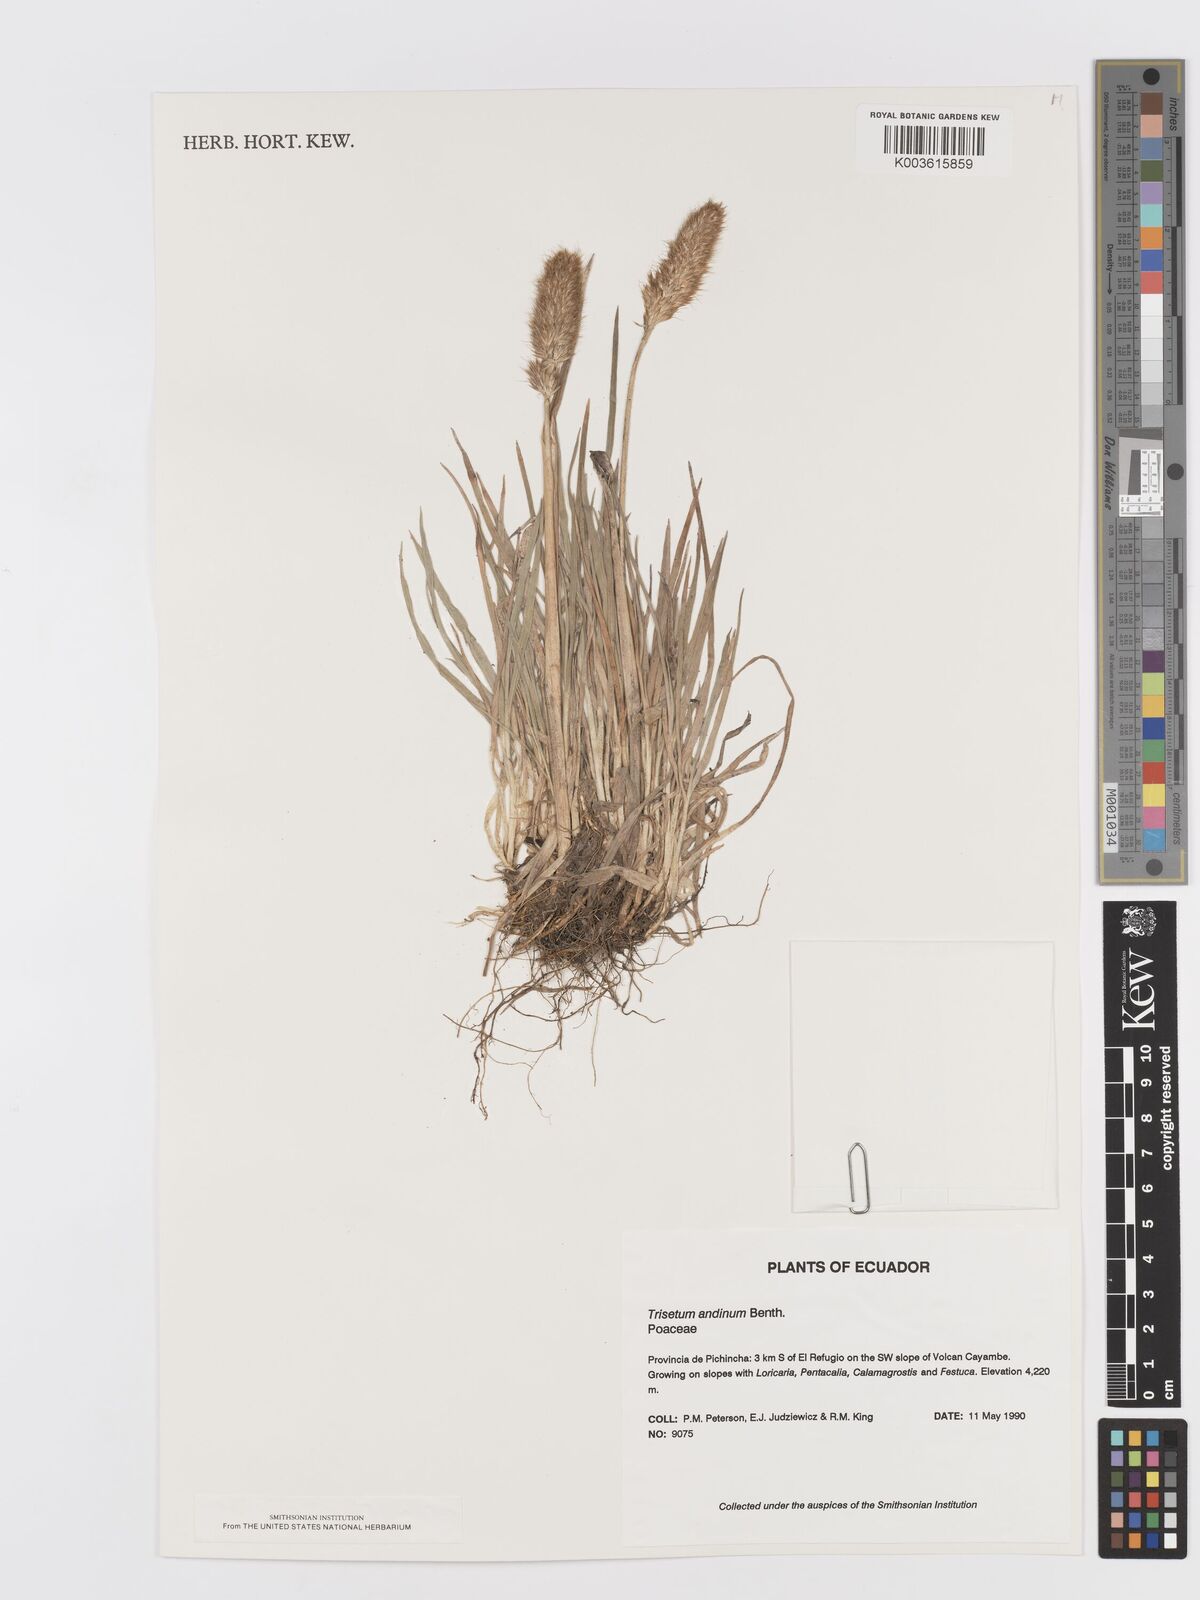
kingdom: Plantae
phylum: Tracheophyta
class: Liliopsida
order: Poales
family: Poaceae
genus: Koeleria
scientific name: Koeleria spicata
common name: Mountain trisetum
